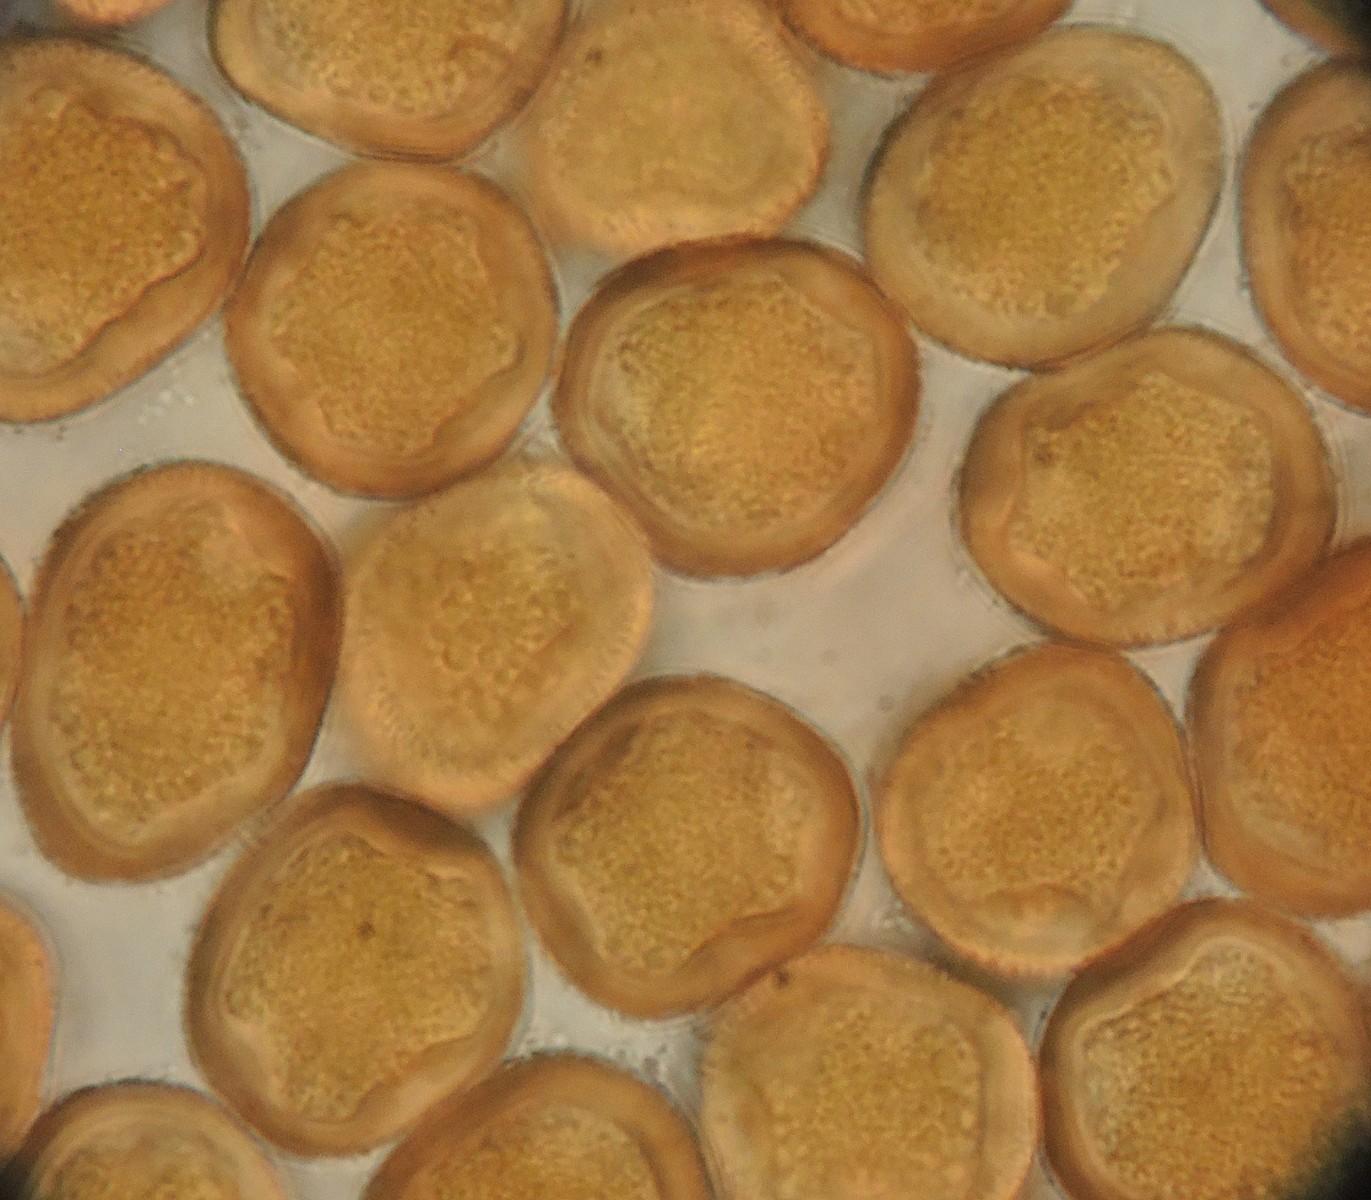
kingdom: Fungi
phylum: Basidiomycota
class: Pucciniomycetes
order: Pucciniales
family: Gymnosporangiaceae
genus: Gymnosporangium
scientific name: Gymnosporangium clavariiforme
